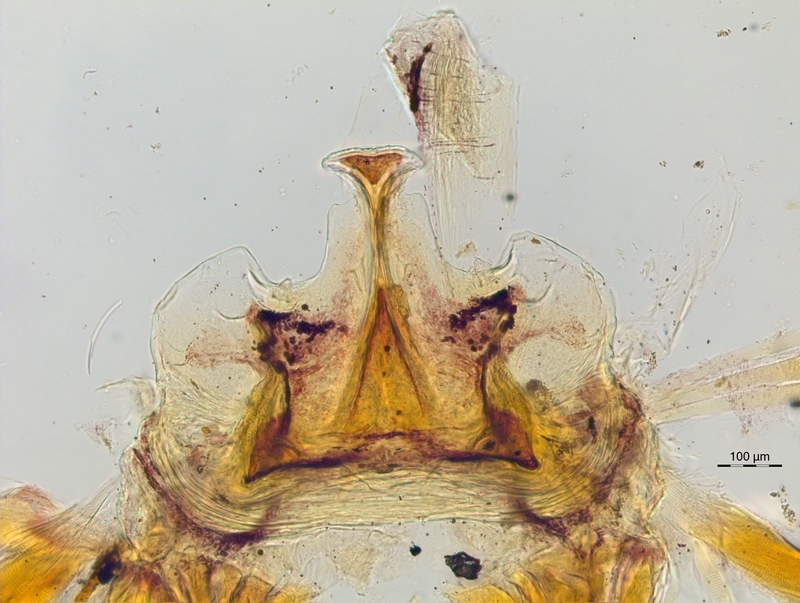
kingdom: Animalia
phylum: Arthropoda
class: Diplopoda
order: Chordeumatida
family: Craspedosomatidae
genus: Craspedosoma
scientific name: Craspedosoma doranum
